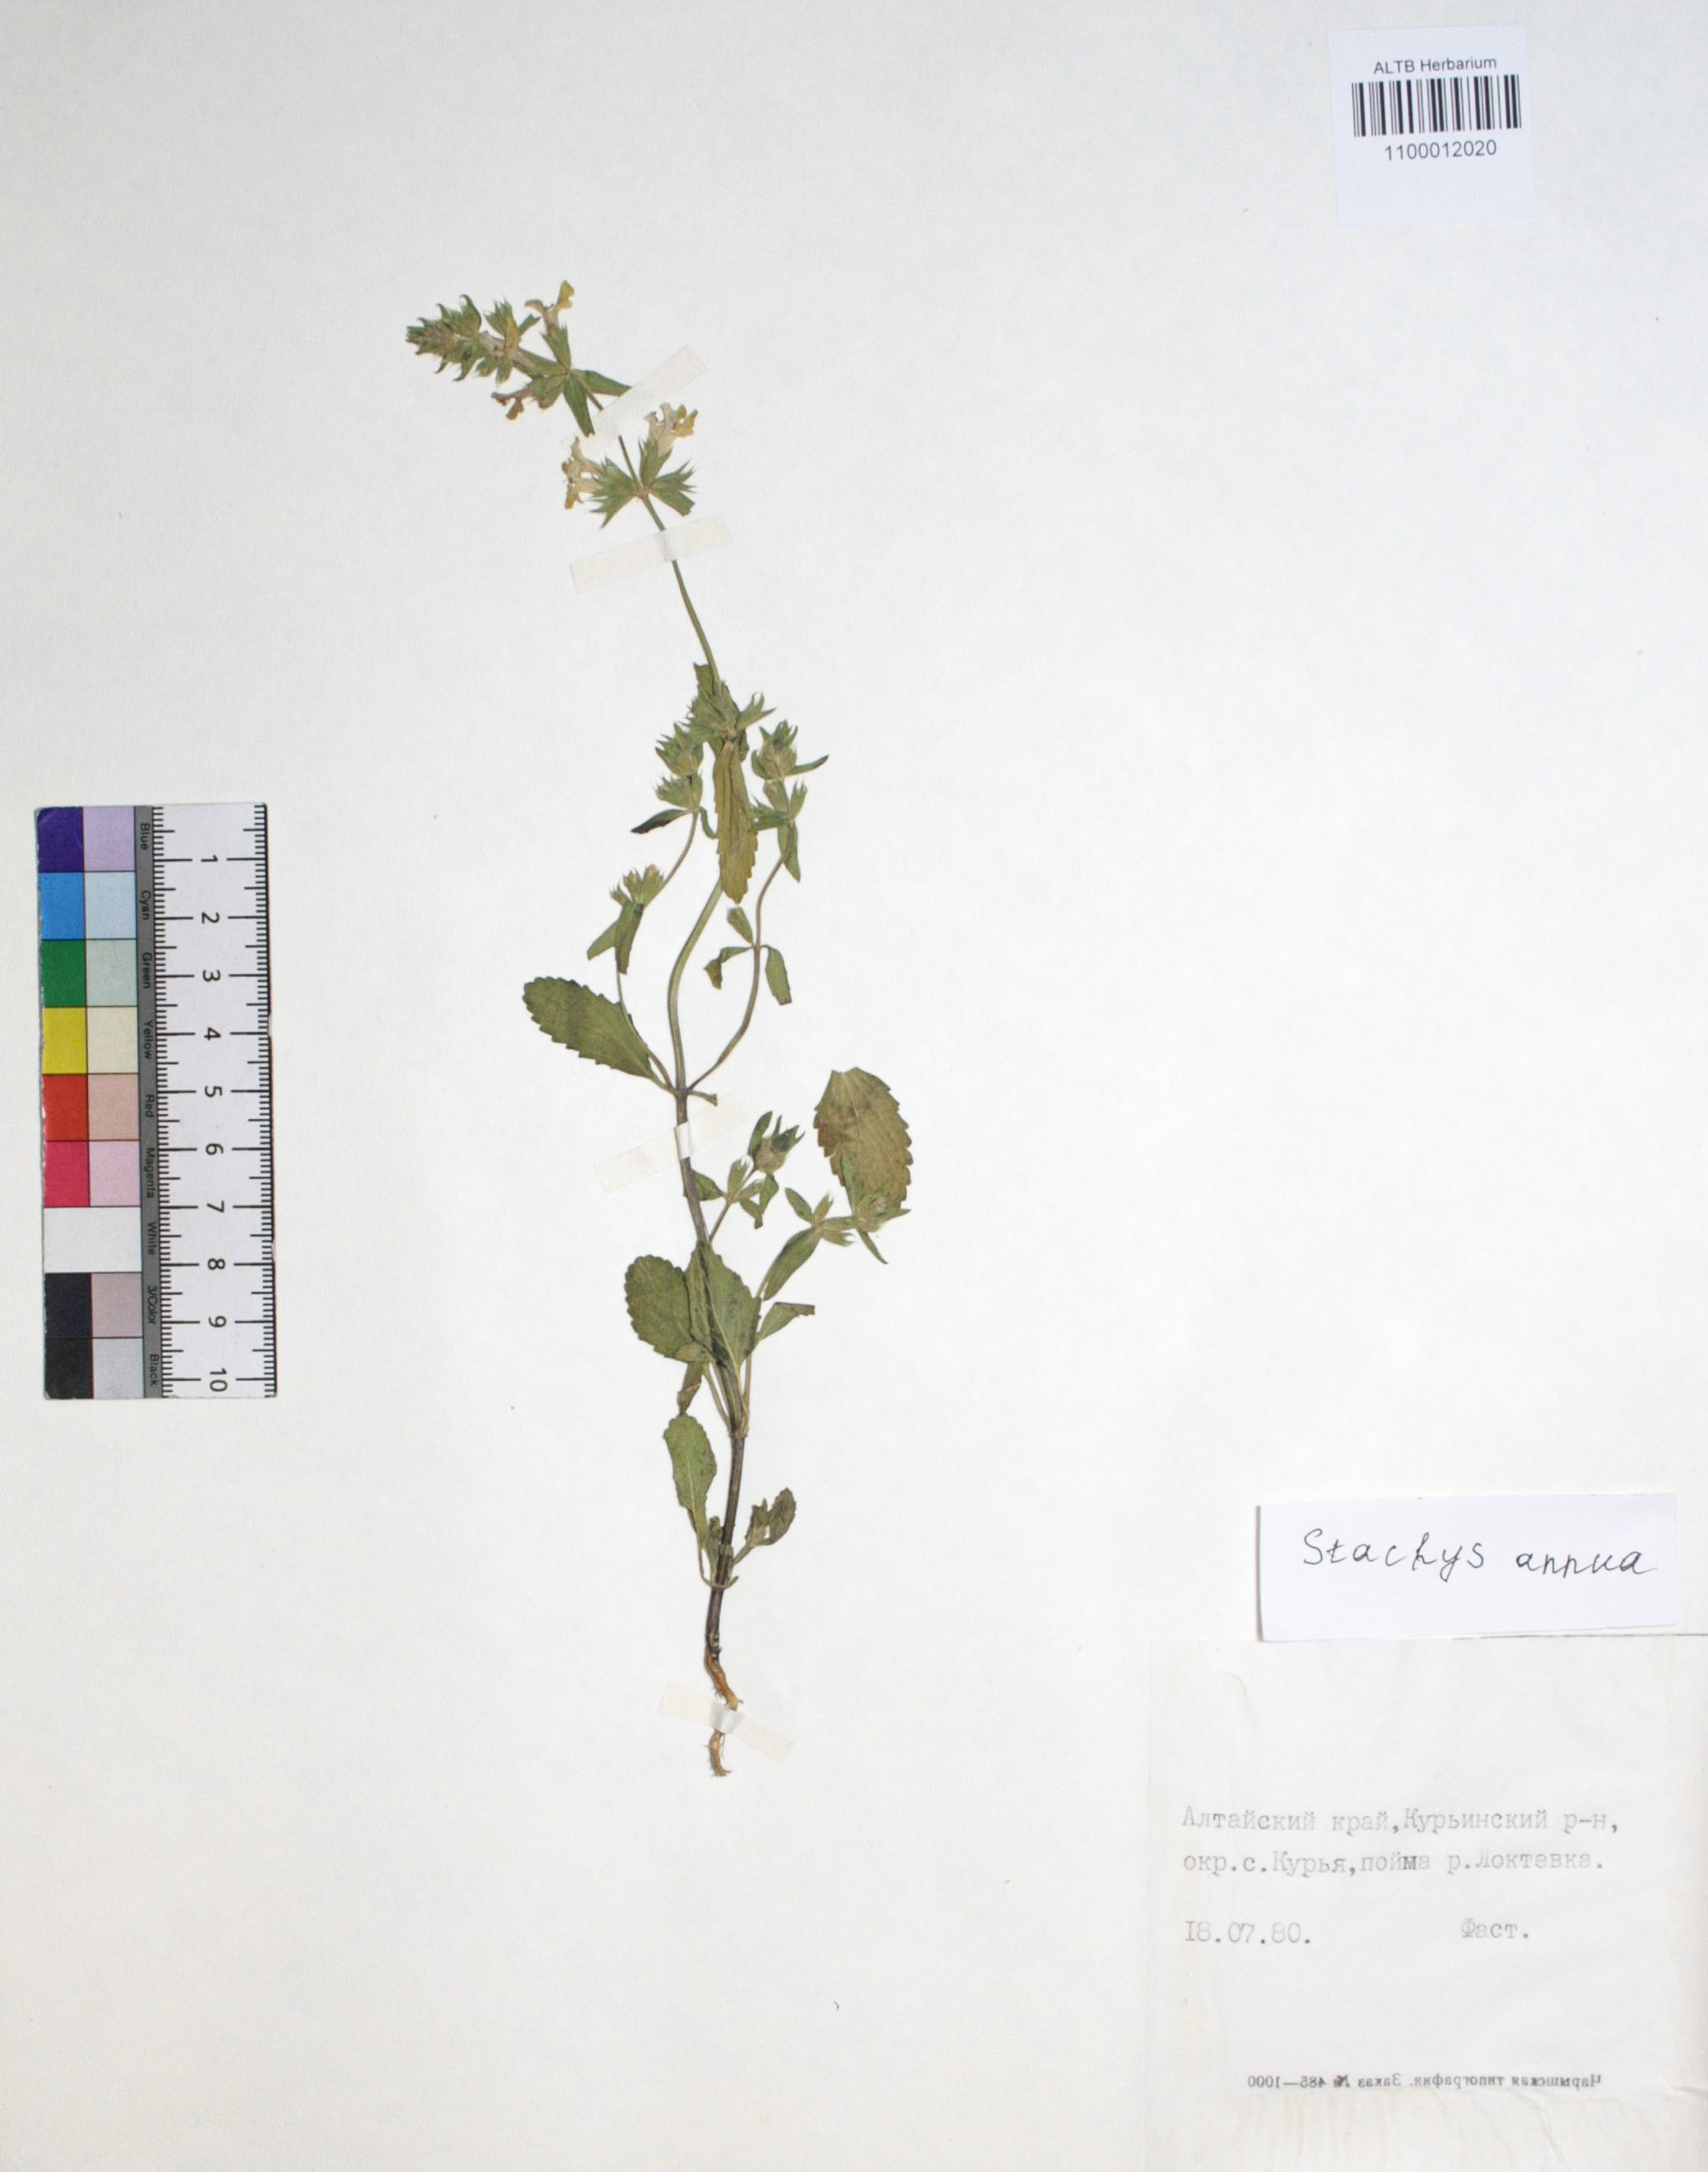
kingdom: Plantae
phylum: Tracheophyta
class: Magnoliopsida
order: Lamiales
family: Lamiaceae
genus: Stachys
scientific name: Stachys annua
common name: Annual yellow-woundwort
